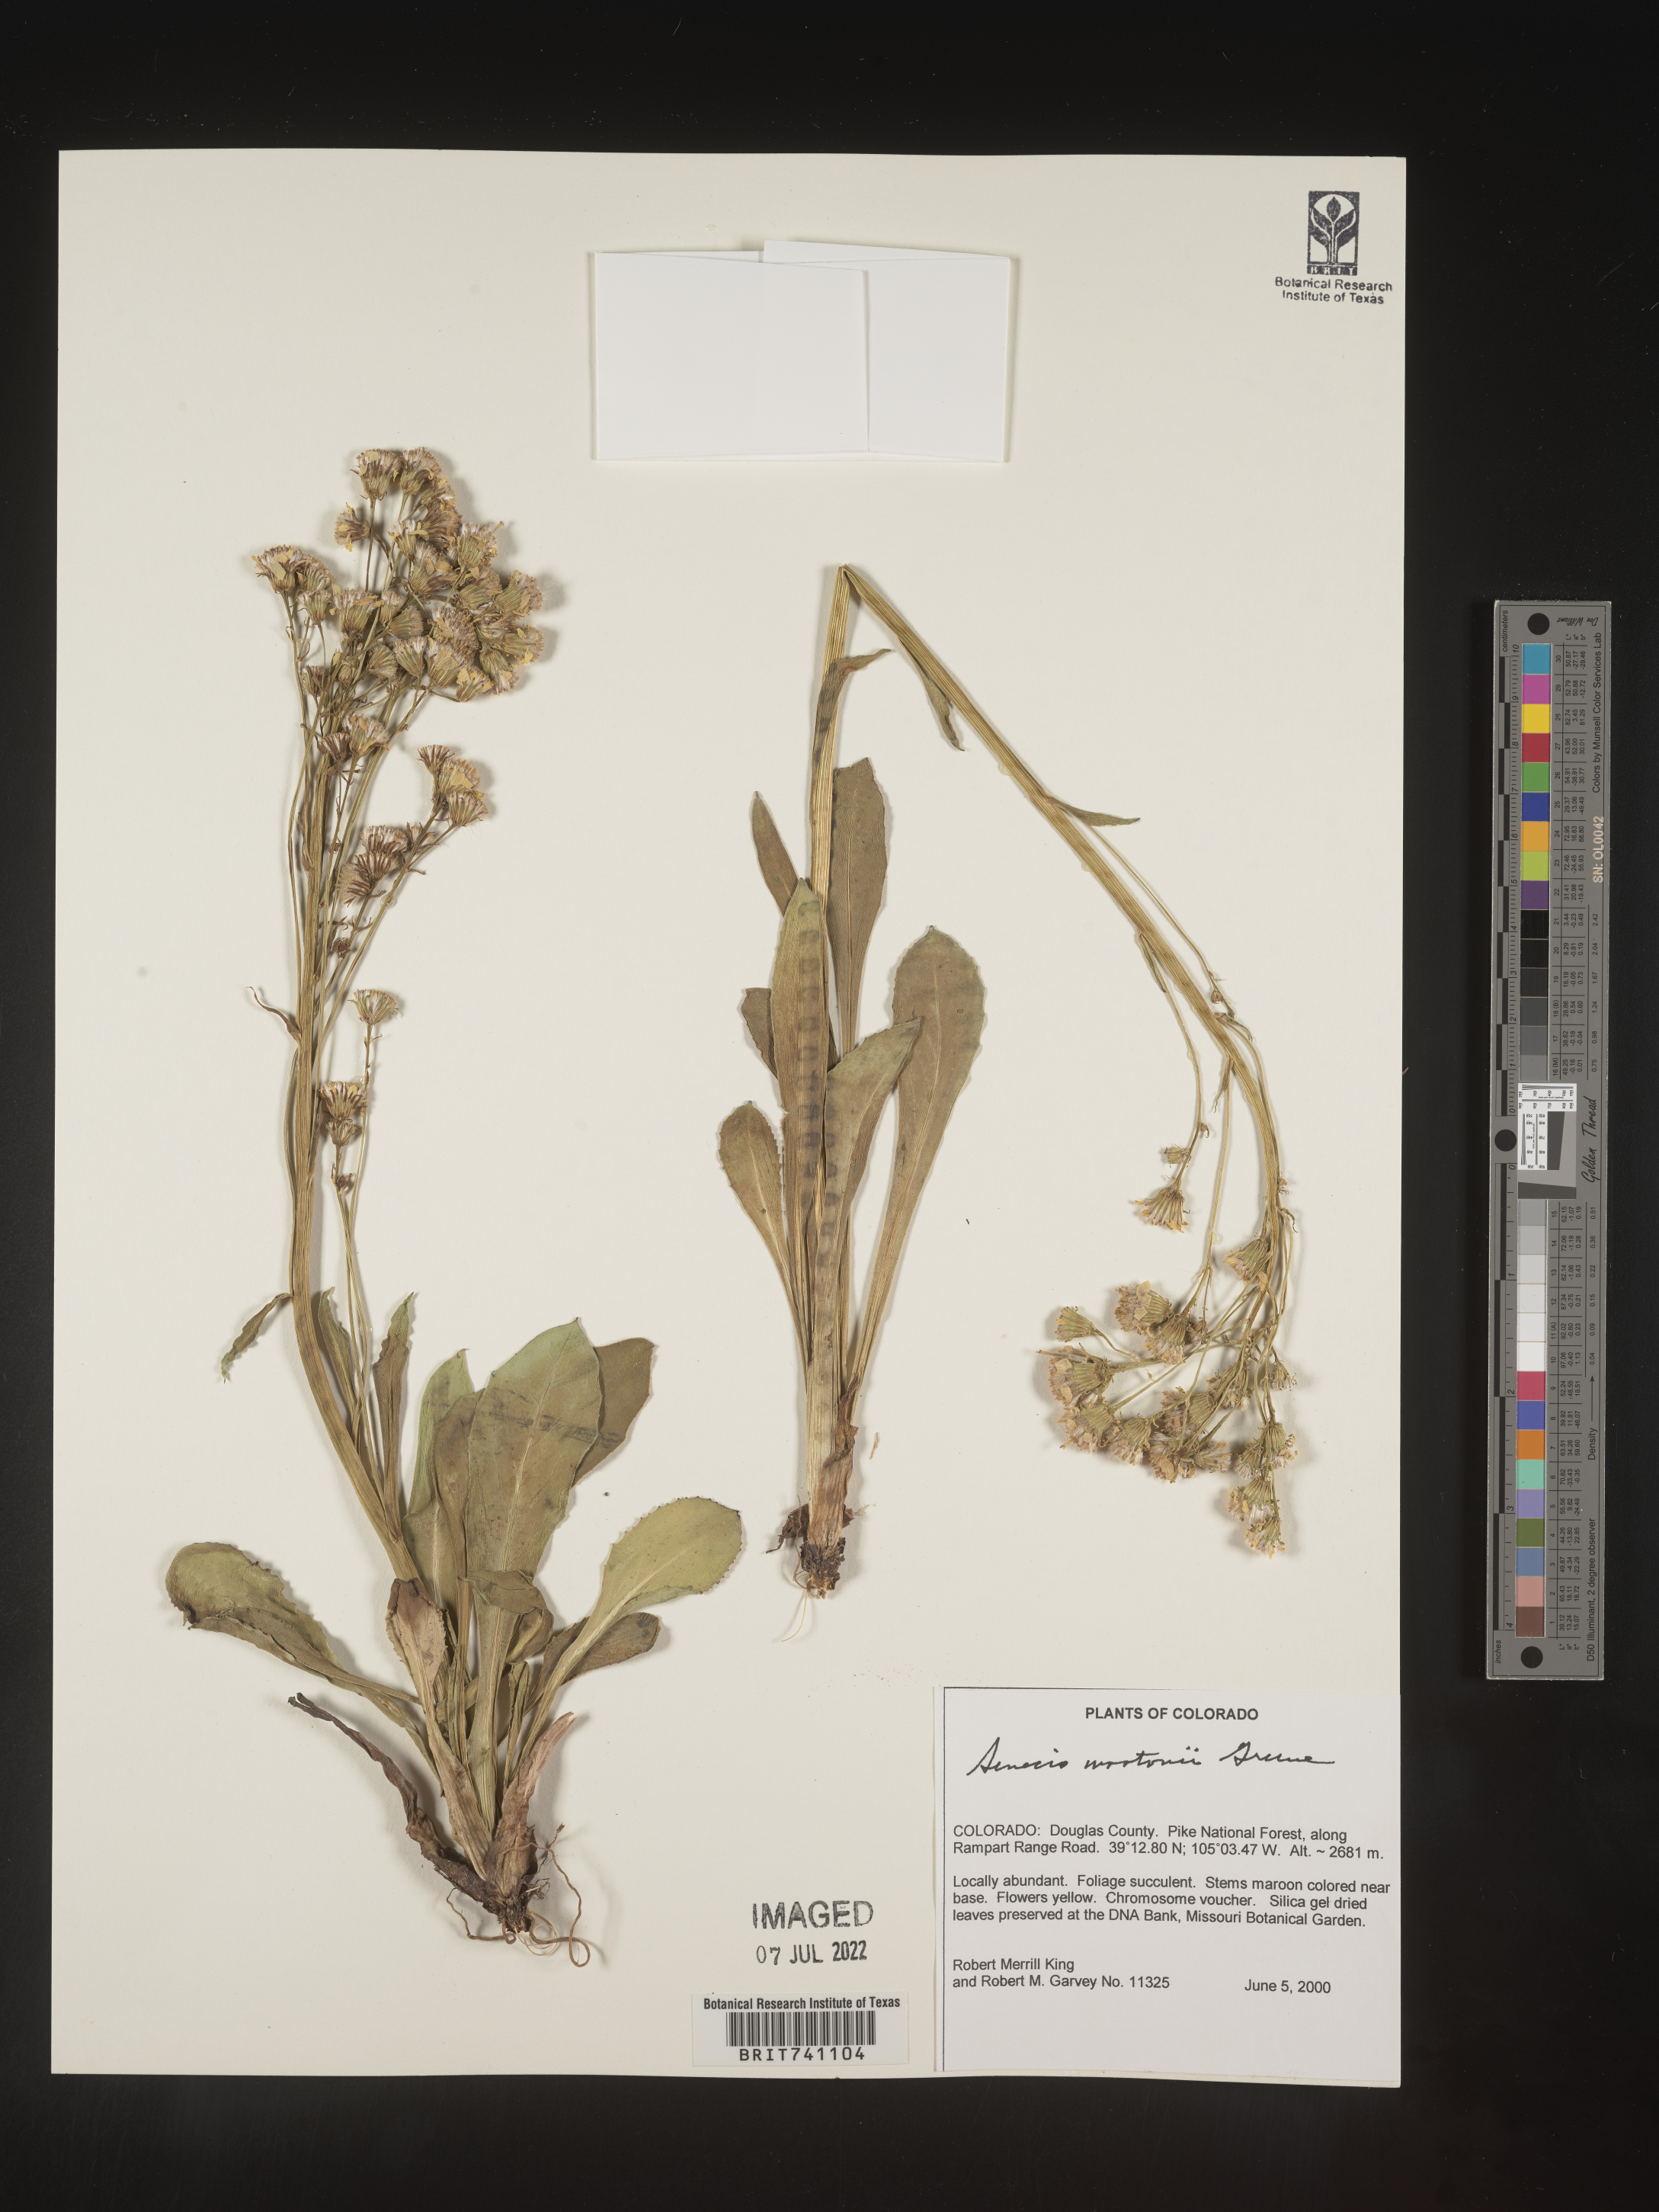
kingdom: Plantae
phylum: Tracheophyta
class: Magnoliopsida
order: Asterales
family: Asteraceae
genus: Senecio
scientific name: Senecio wootonii
